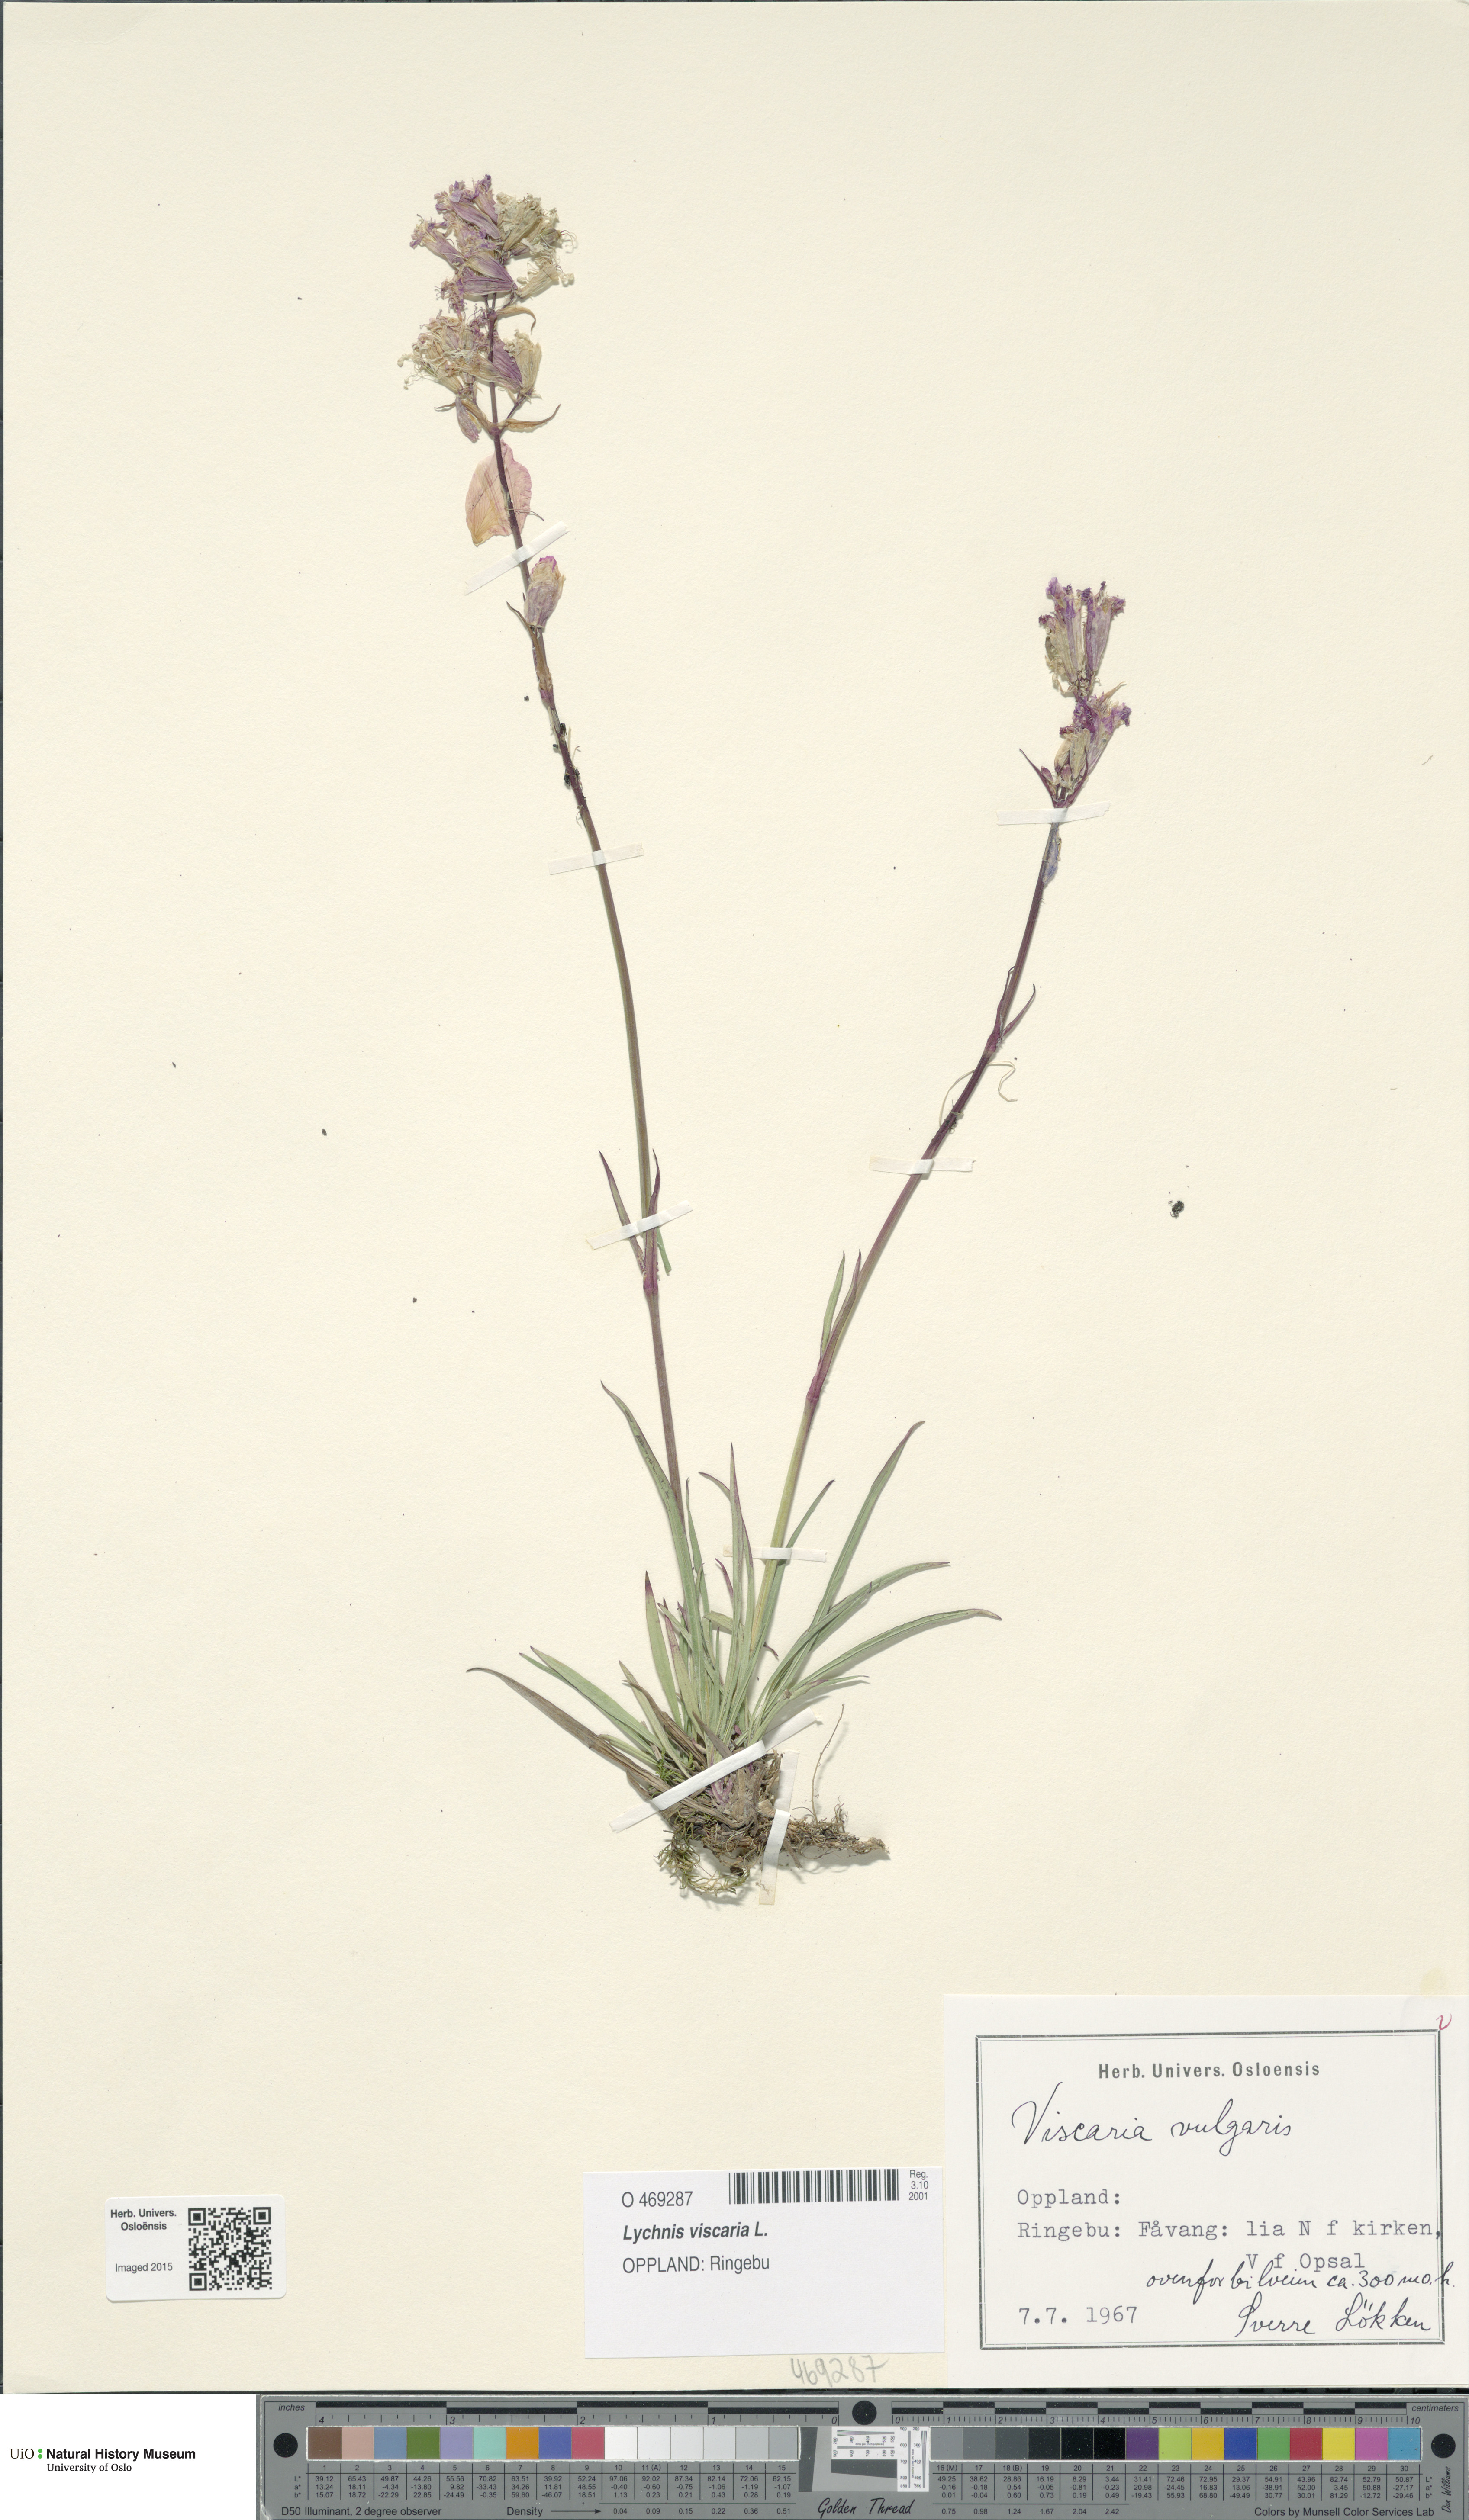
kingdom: Plantae
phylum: Tracheophyta
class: Magnoliopsida
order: Caryophyllales
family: Caryophyllaceae
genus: Viscaria
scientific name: Viscaria vulgaris
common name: Clammy campion
